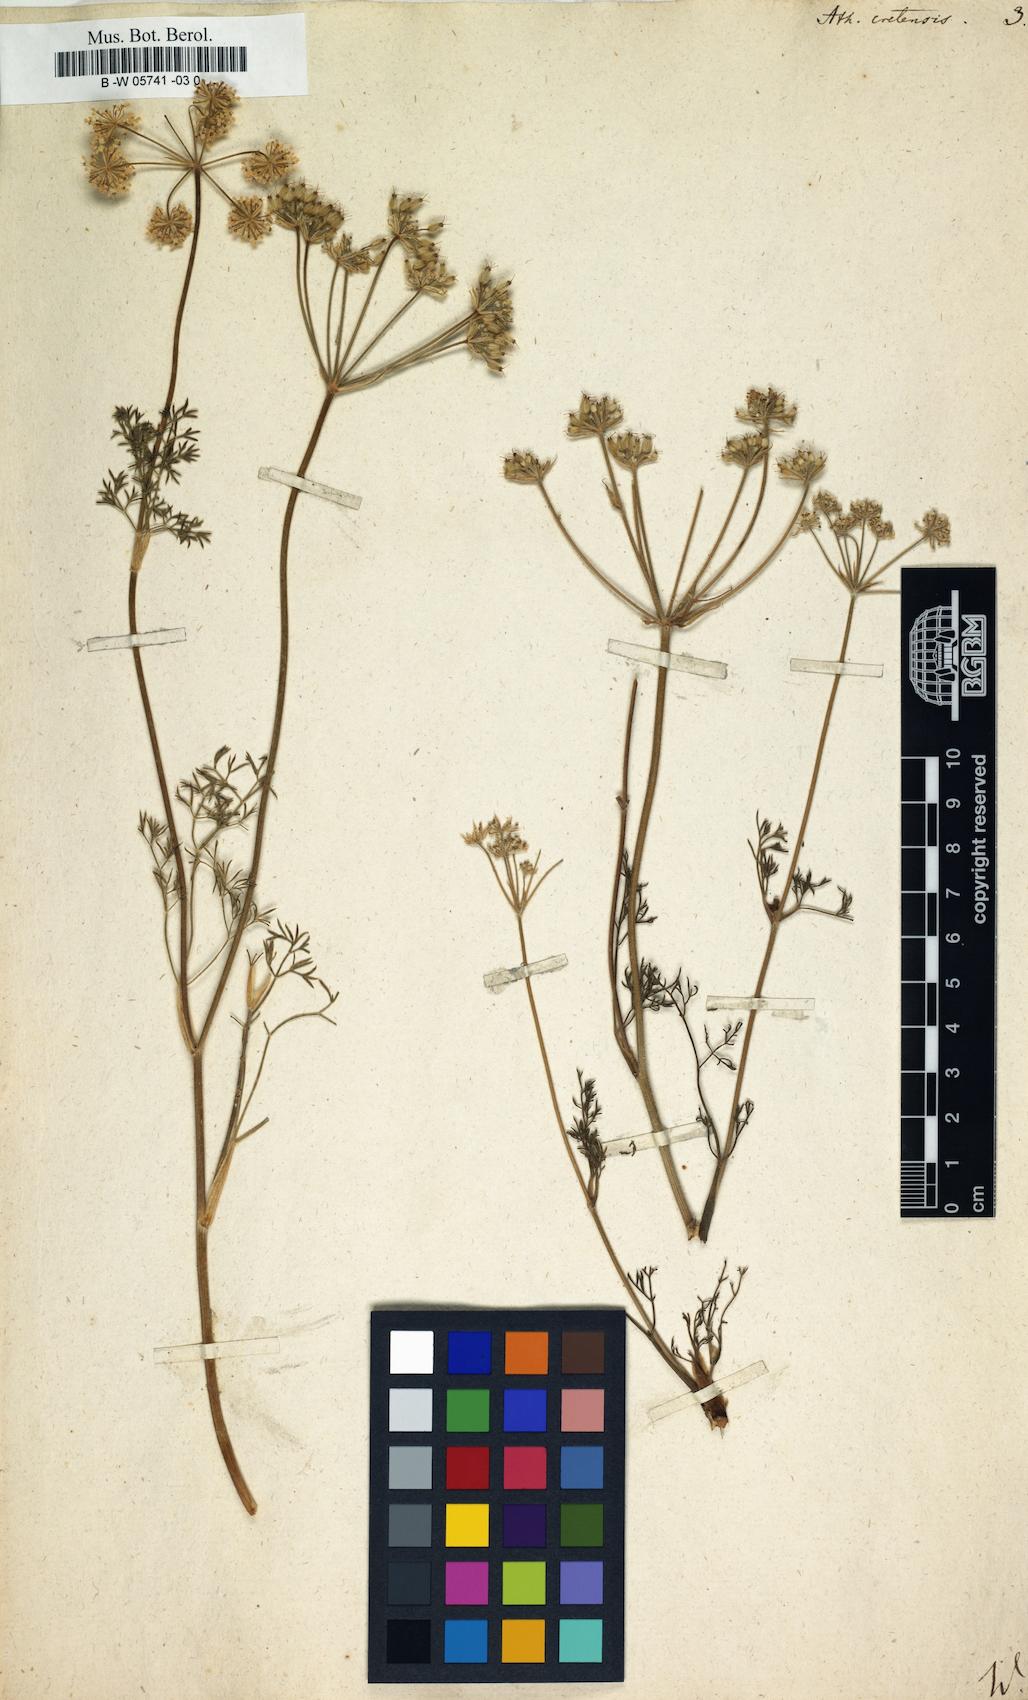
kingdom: Plantae
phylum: Tracheophyta
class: Magnoliopsida
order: Apiales
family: Apiaceae
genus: Athamanta
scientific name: Athamanta cretensis
